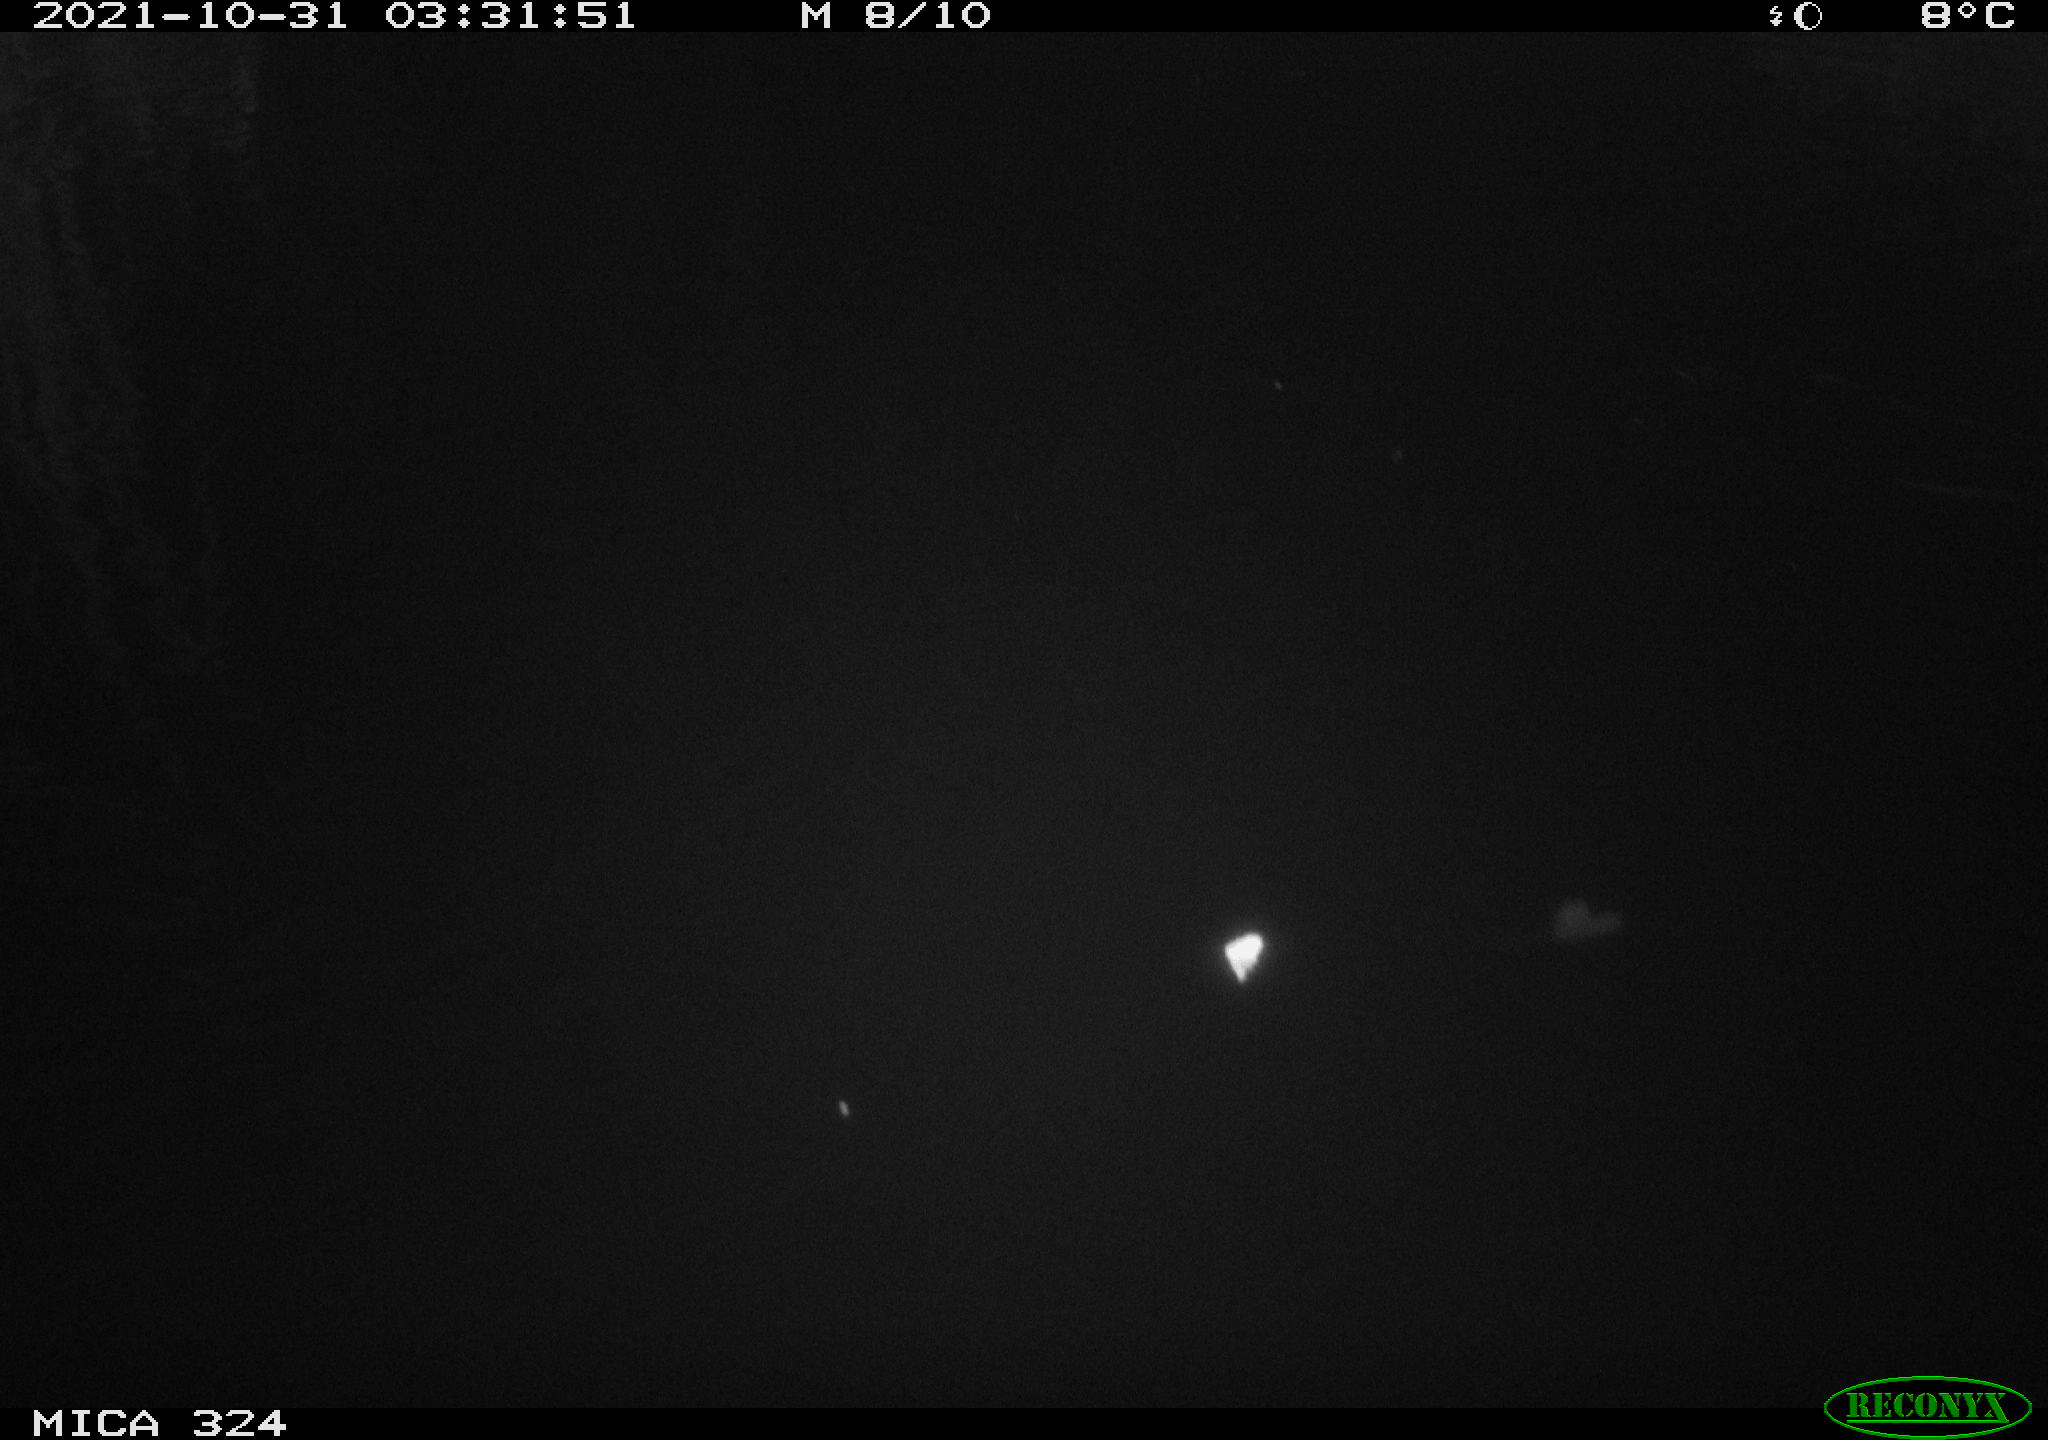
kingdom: Animalia
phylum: Chordata
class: Mammalia
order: Rodentia
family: Cricetidae
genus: Ondatra
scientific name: Ondatra zibethicus
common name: Muskrat
